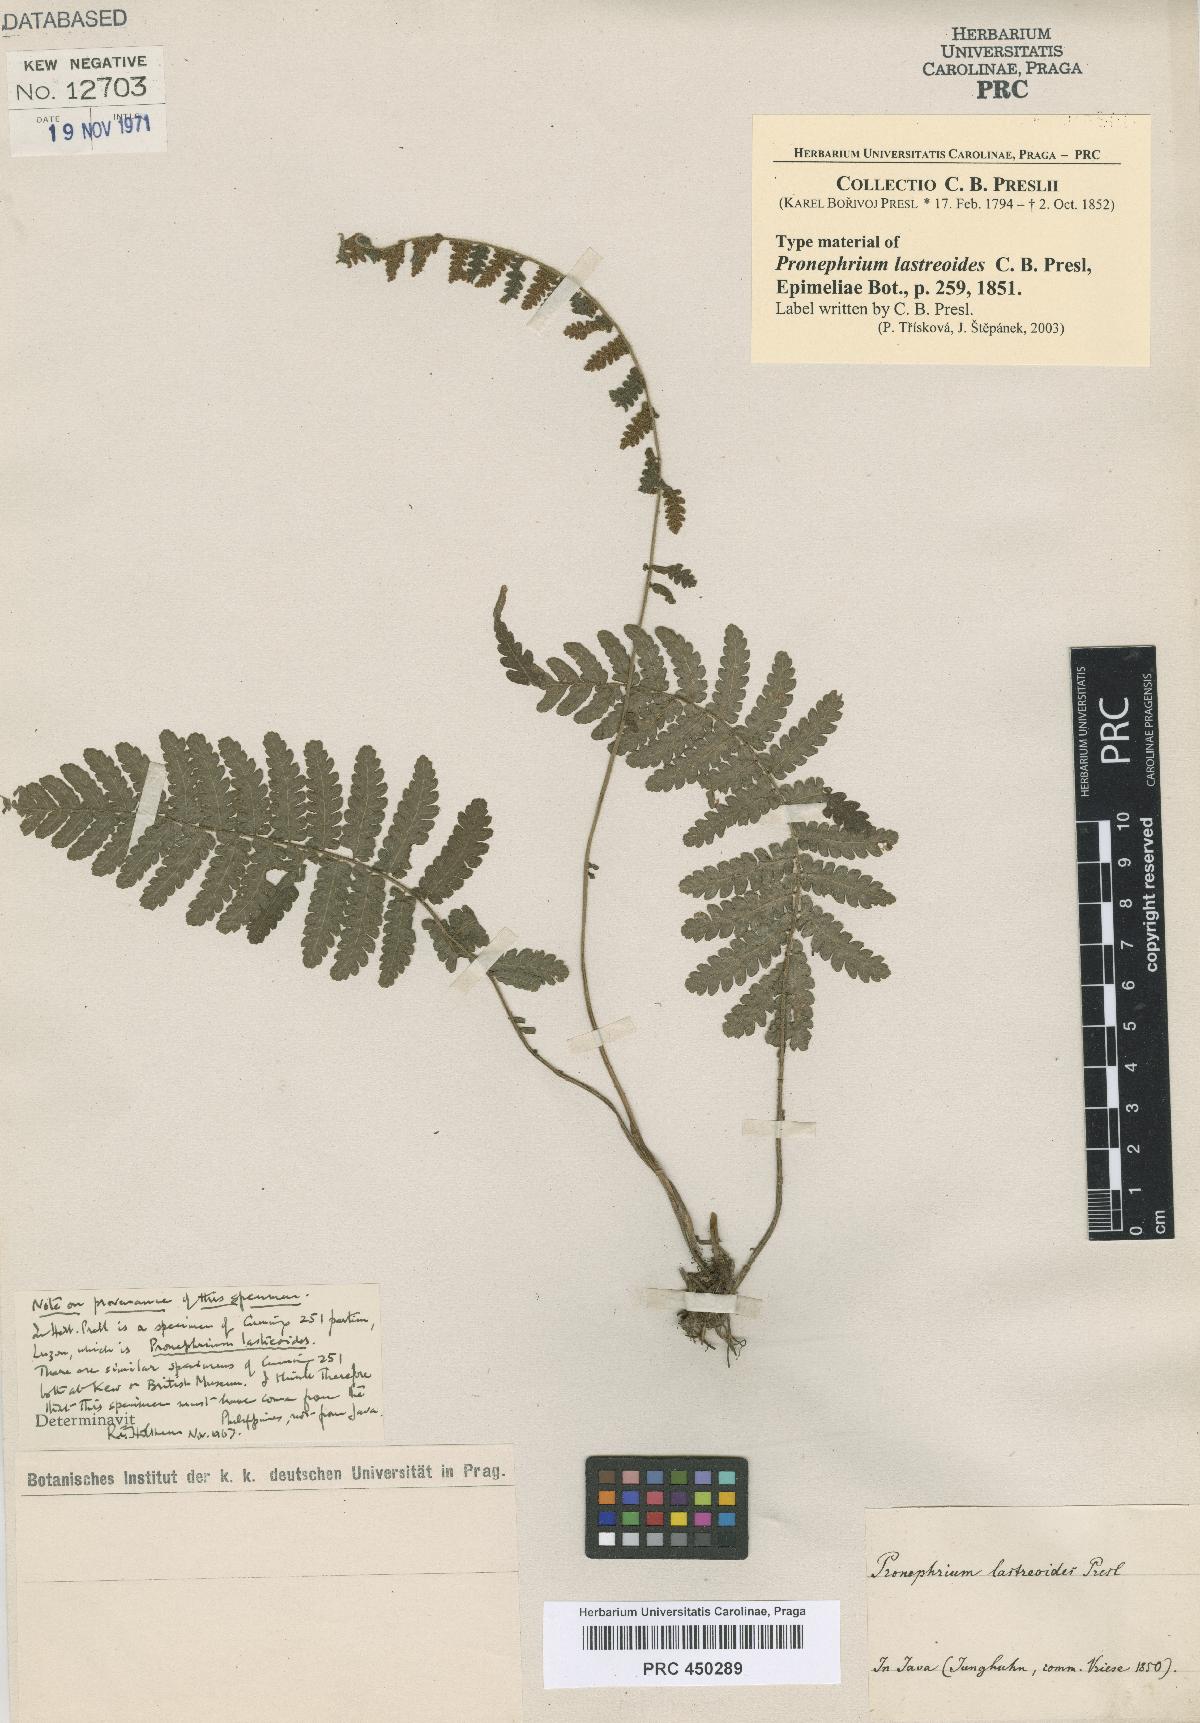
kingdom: Plantae
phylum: Tracheophyta
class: Polypodiopsida
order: Polypodiales
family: Thelypteridaceae
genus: Sphaerostephanos
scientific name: Sphaerostephanos lastreoides
